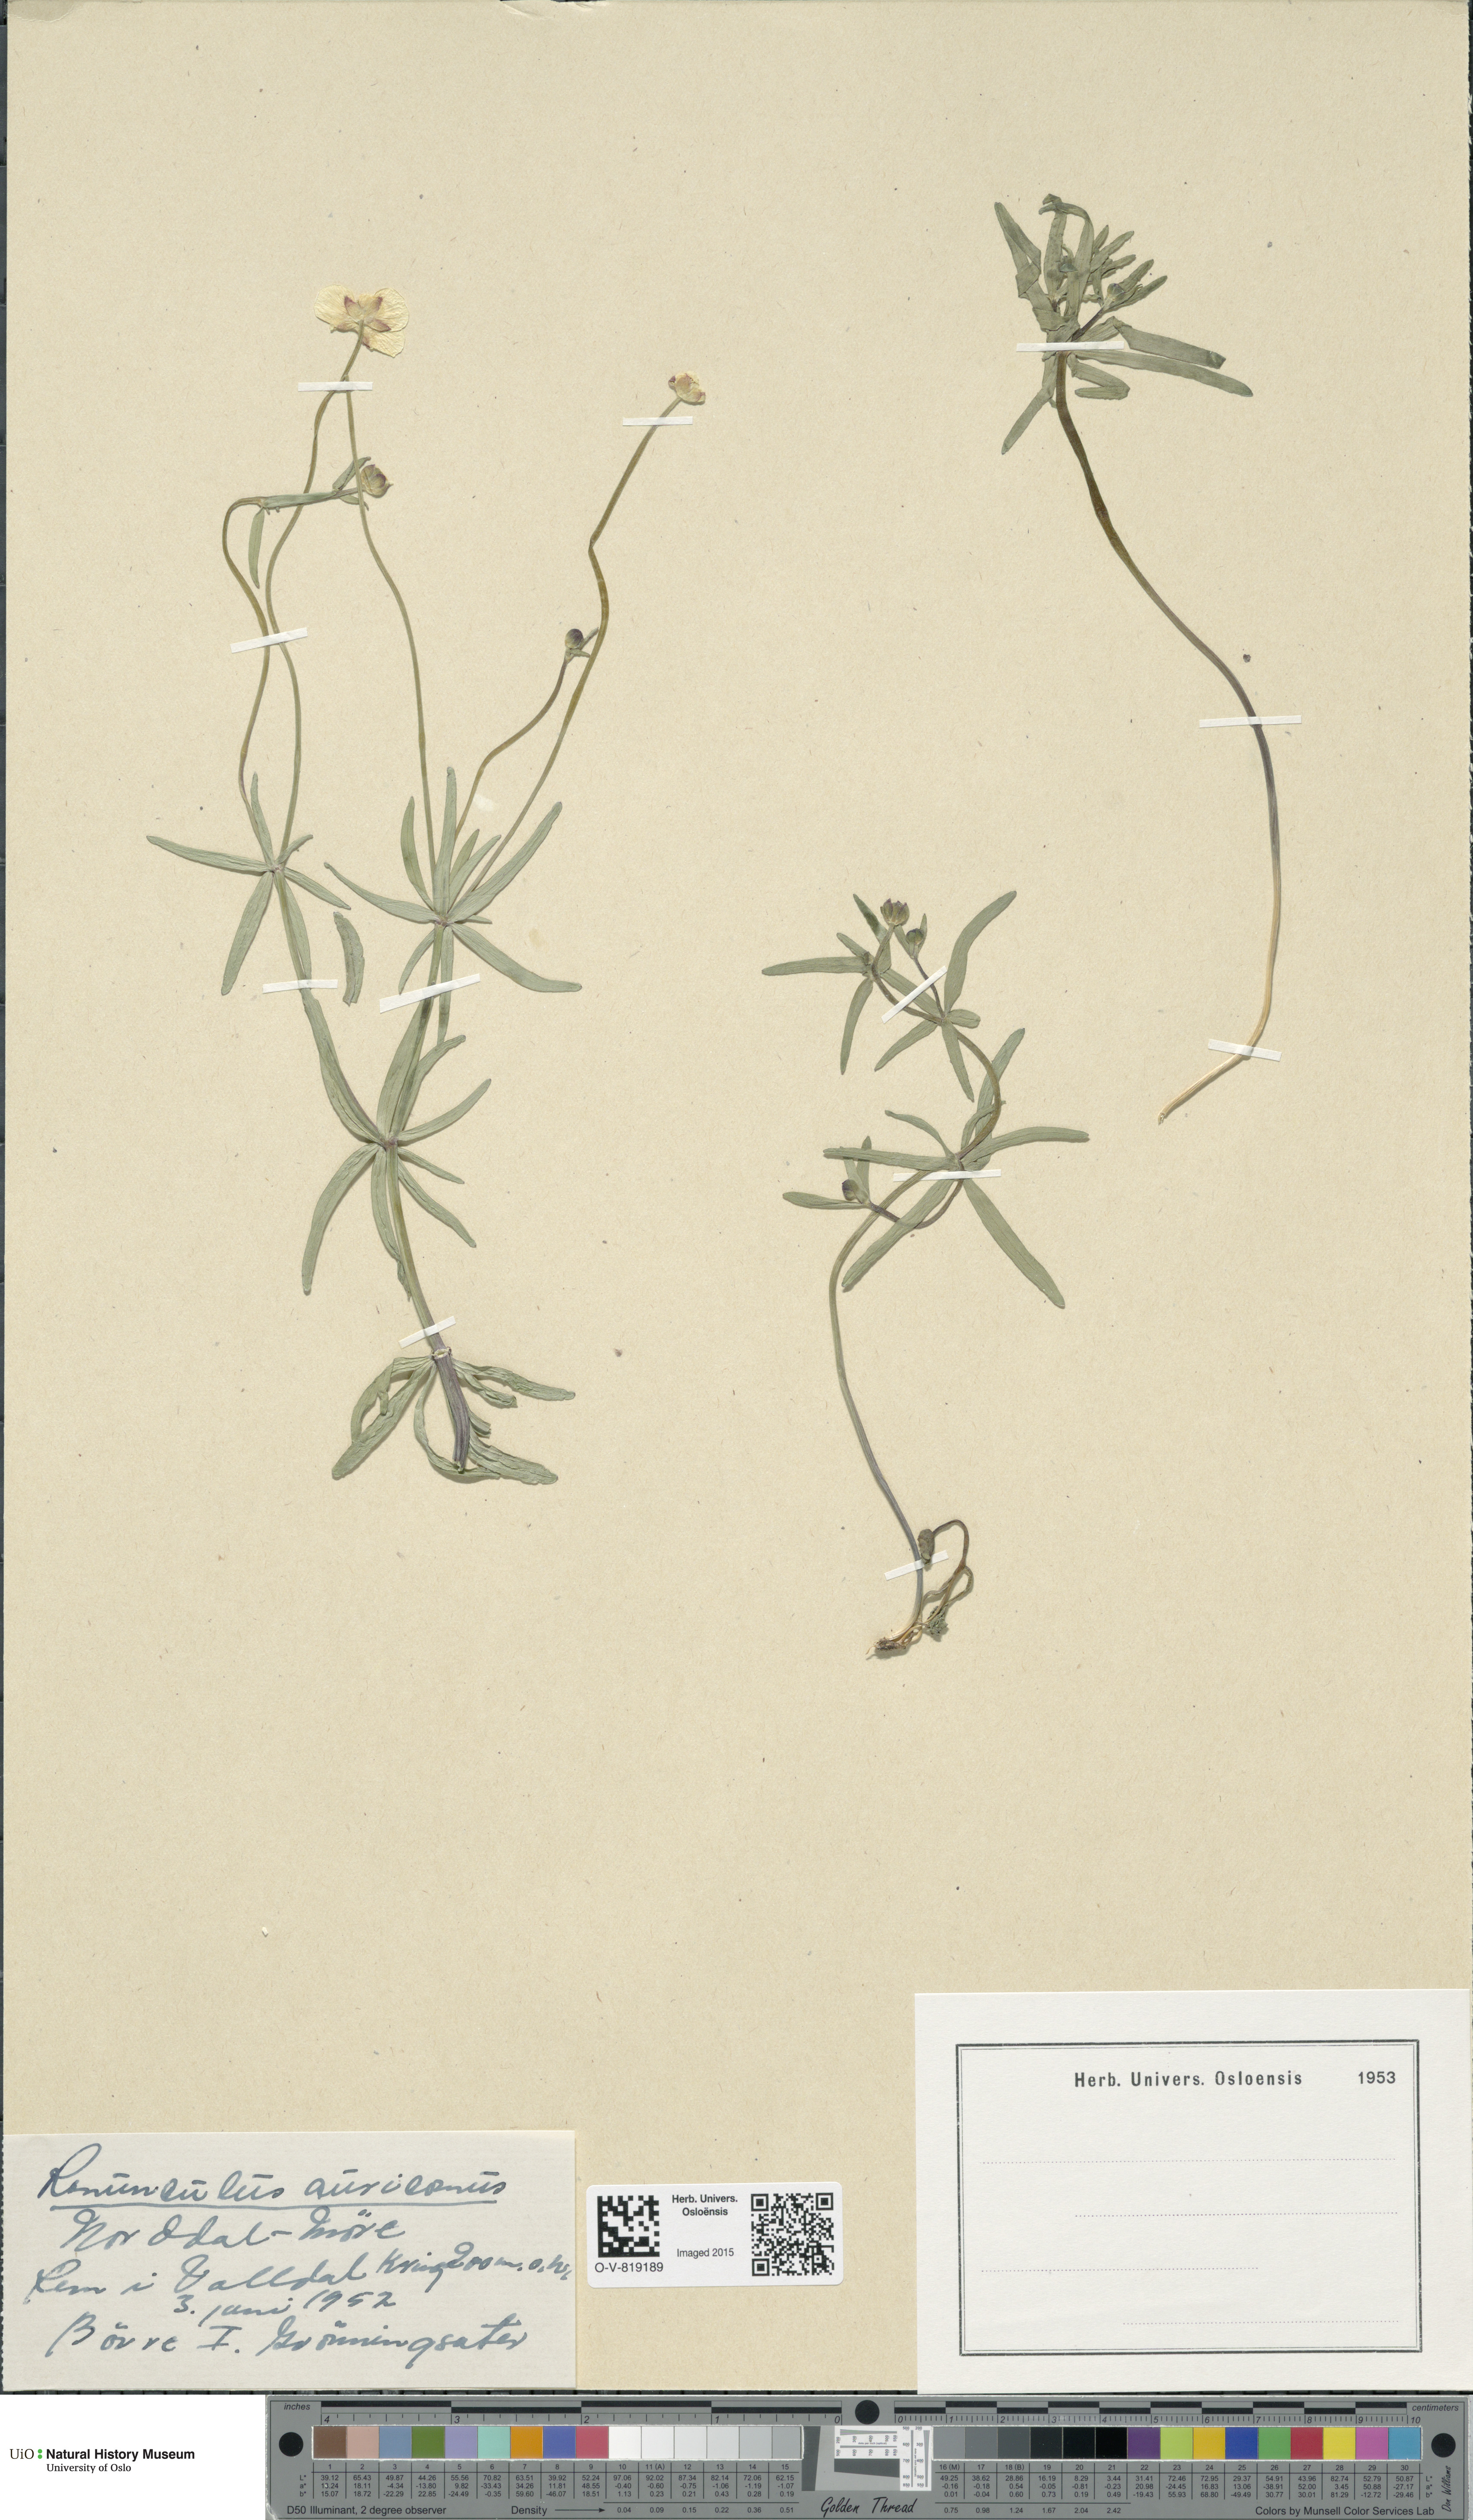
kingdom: Plantae
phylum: Tracheophyta
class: Magnoliopsida
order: Ranunculales
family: Ranunculaceae
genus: Ranunculus
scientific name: Ranunculus auricomus
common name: Goldilocks buttercup
